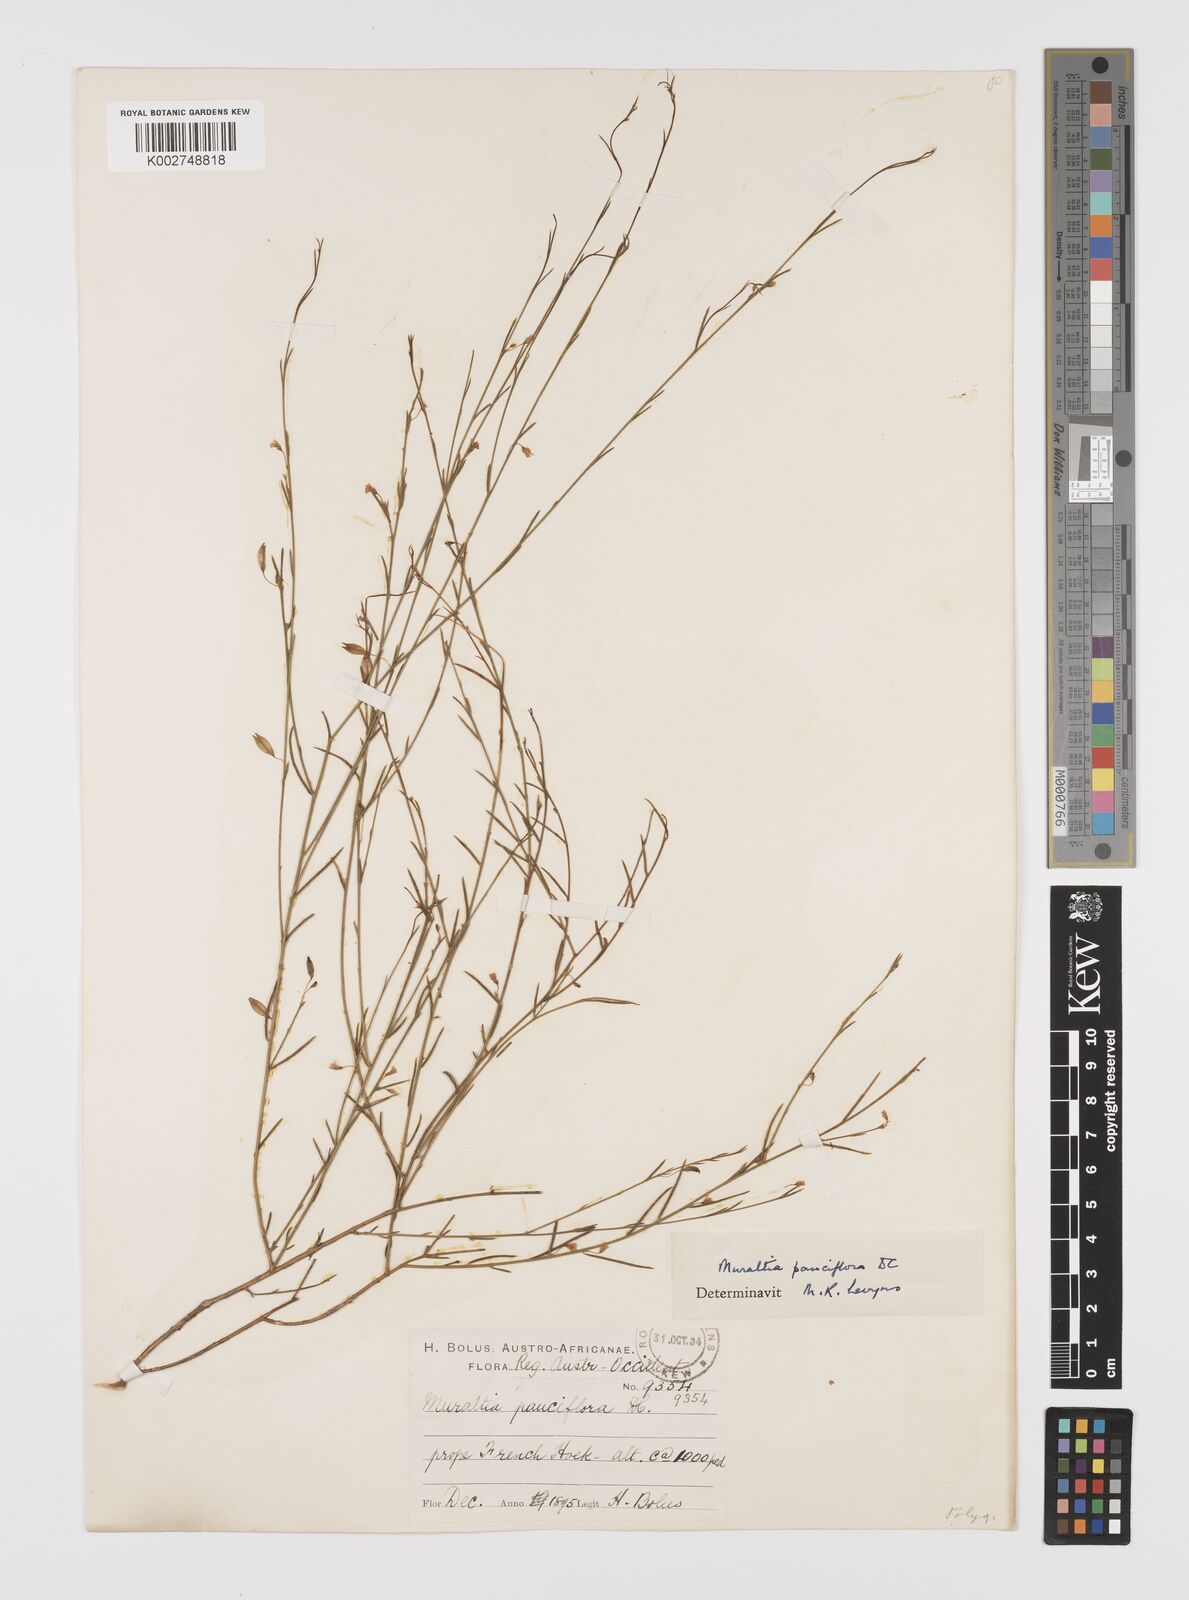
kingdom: Plantae
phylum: Tracheophyta
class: Magnoliopsida
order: Fabales
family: Polygalaceae
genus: Muraltia
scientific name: Muraltia pauciflora
